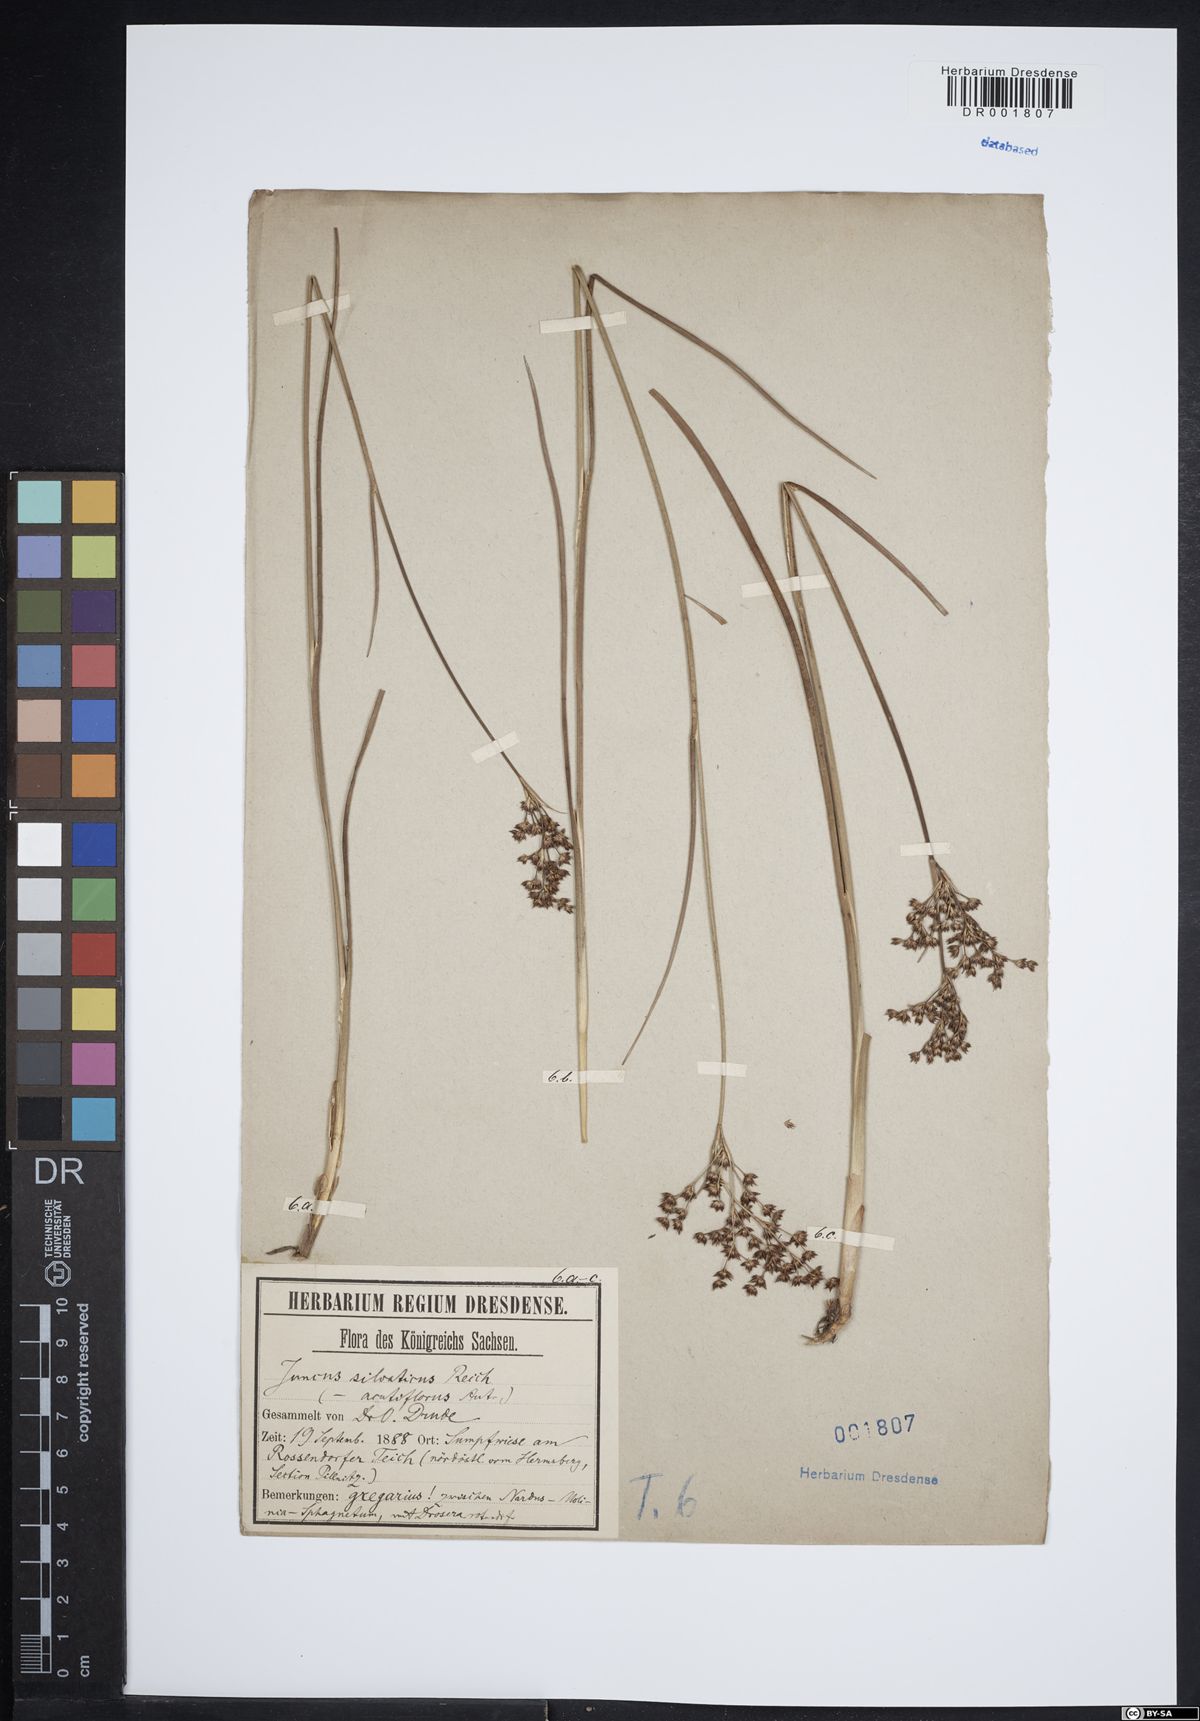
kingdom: Plantae
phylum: Tracheophyta
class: Liliopsida
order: Poales
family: Juncaceae
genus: Juncus
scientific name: Juncus acutiflorus
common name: Sharp-flowered rush
